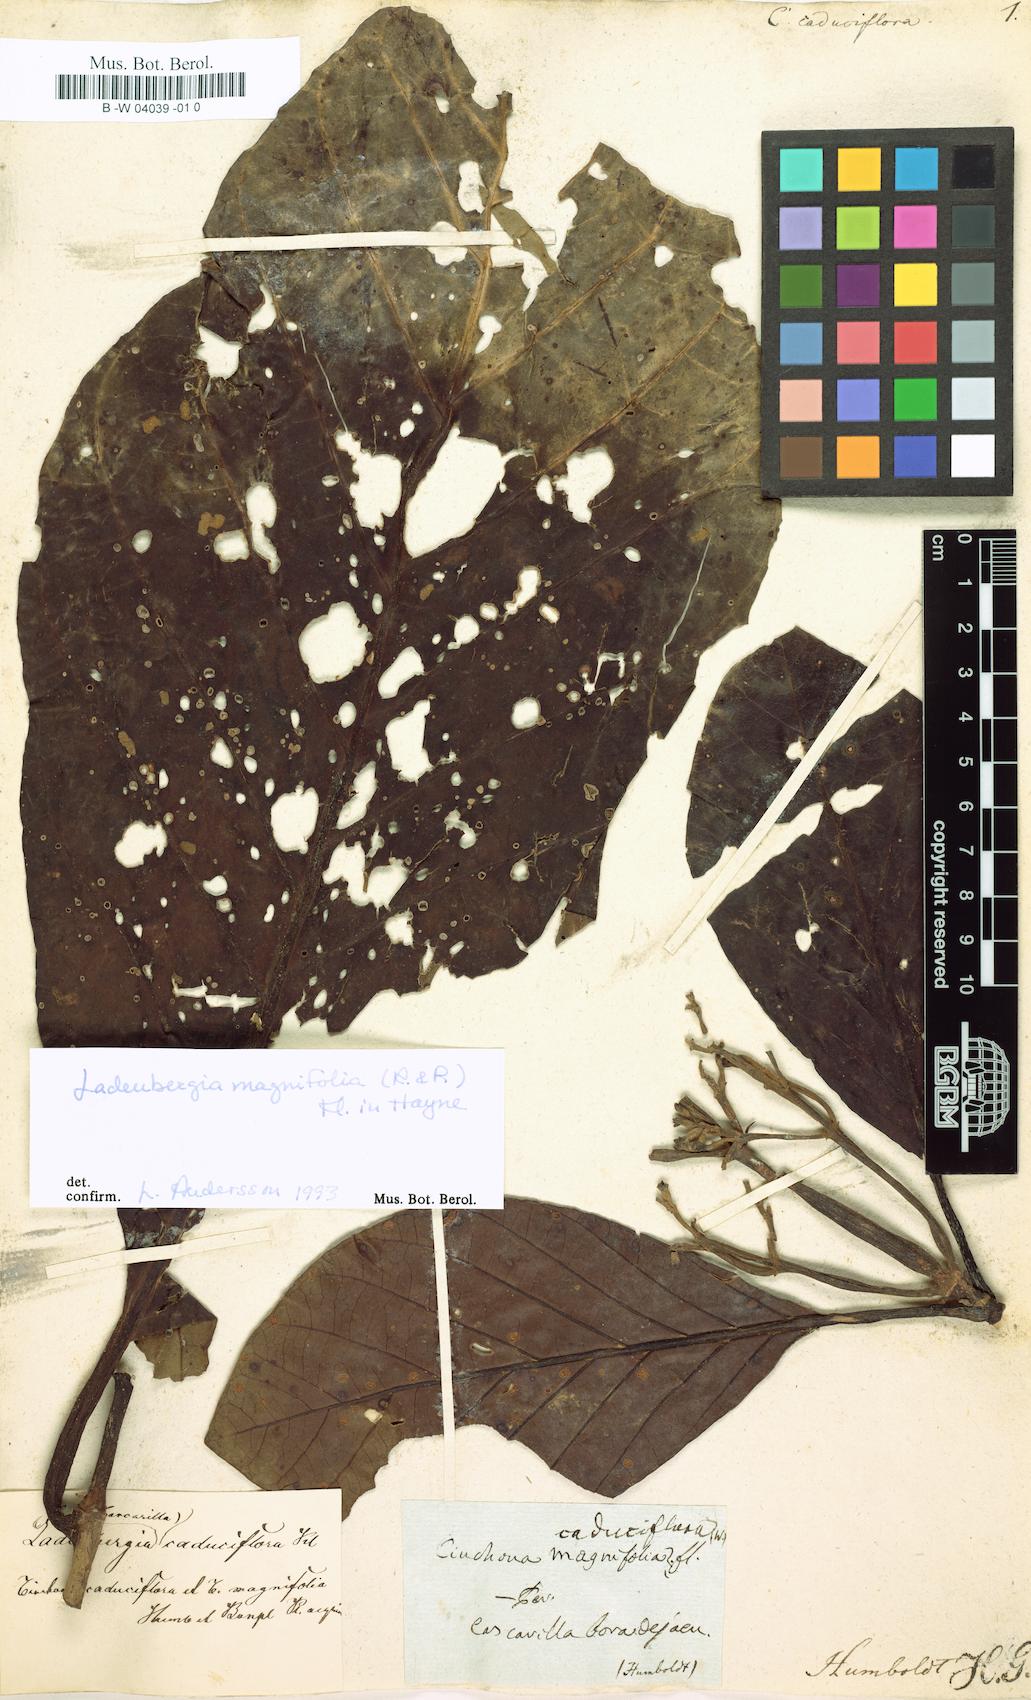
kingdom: Plantae
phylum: Tracheophyta
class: Magnoliopsida
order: Gentianales
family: Rubiaceae
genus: Ladenbergia
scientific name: Ladenbergia oblongifolia
